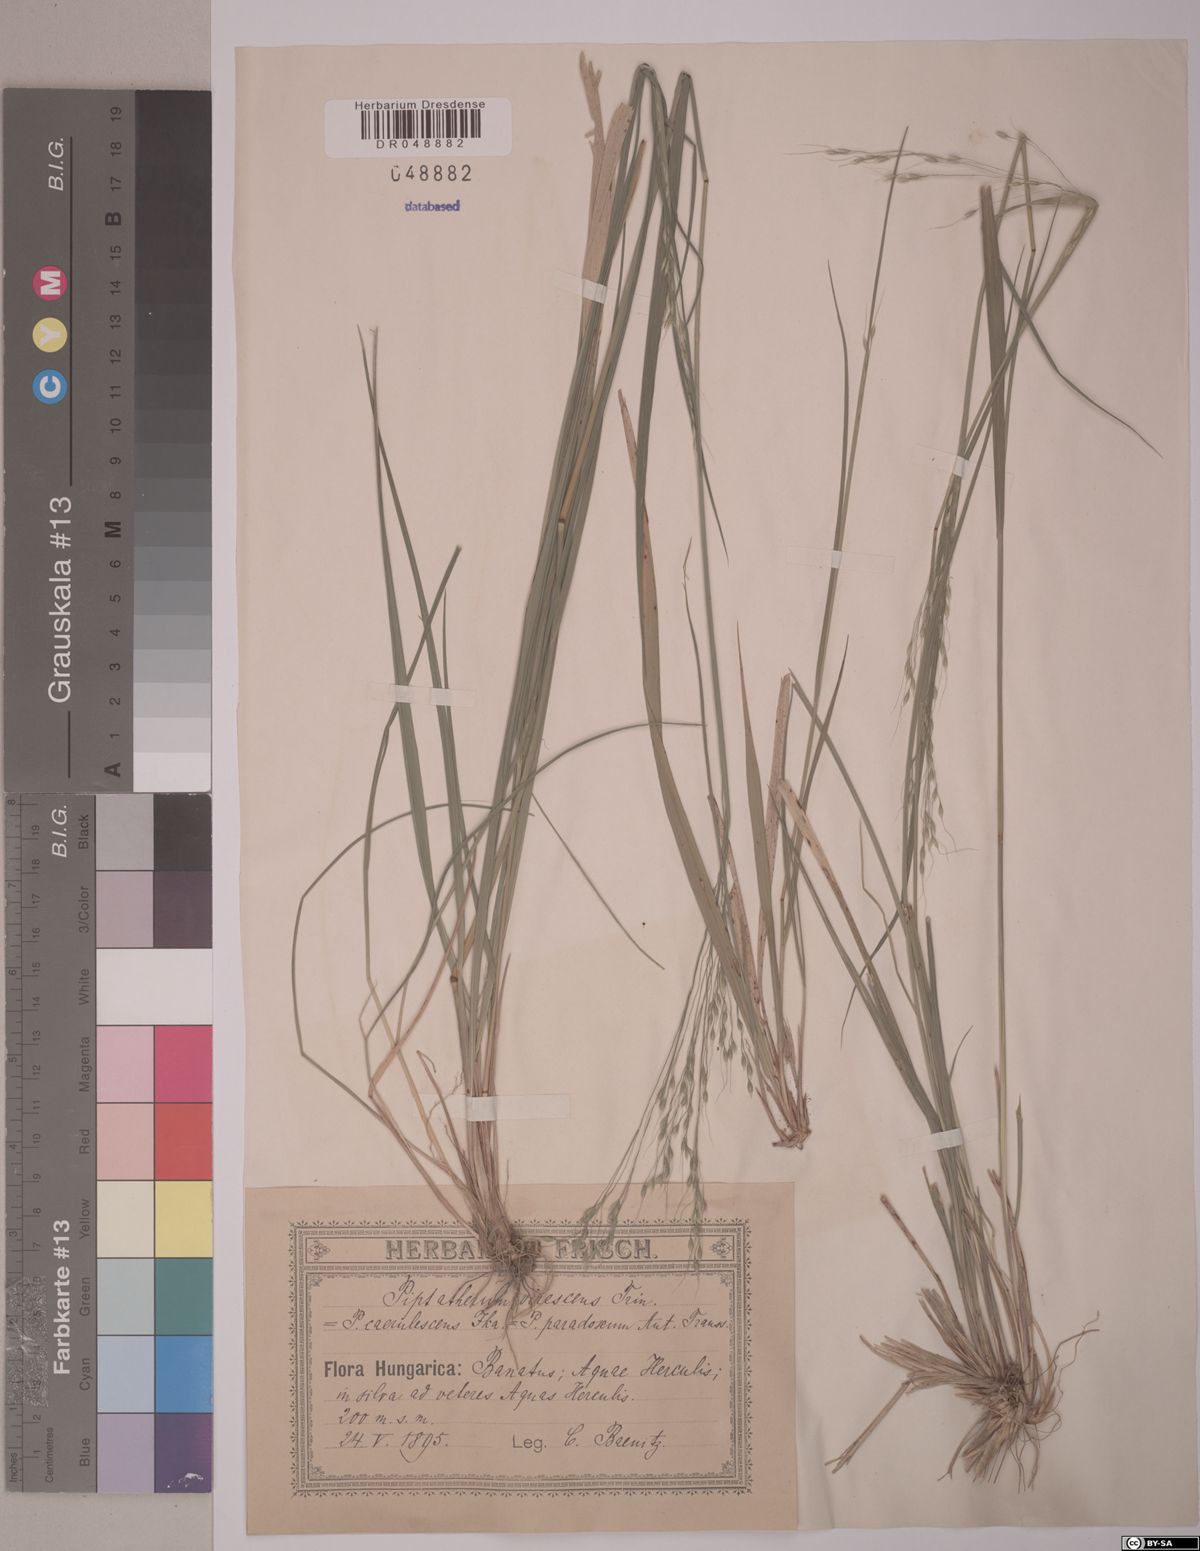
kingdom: Plantae
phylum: Tracheophyta
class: Liliopsida
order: Poales
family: Poaceae
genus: Achnatherum
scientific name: Achnatherum virescens
